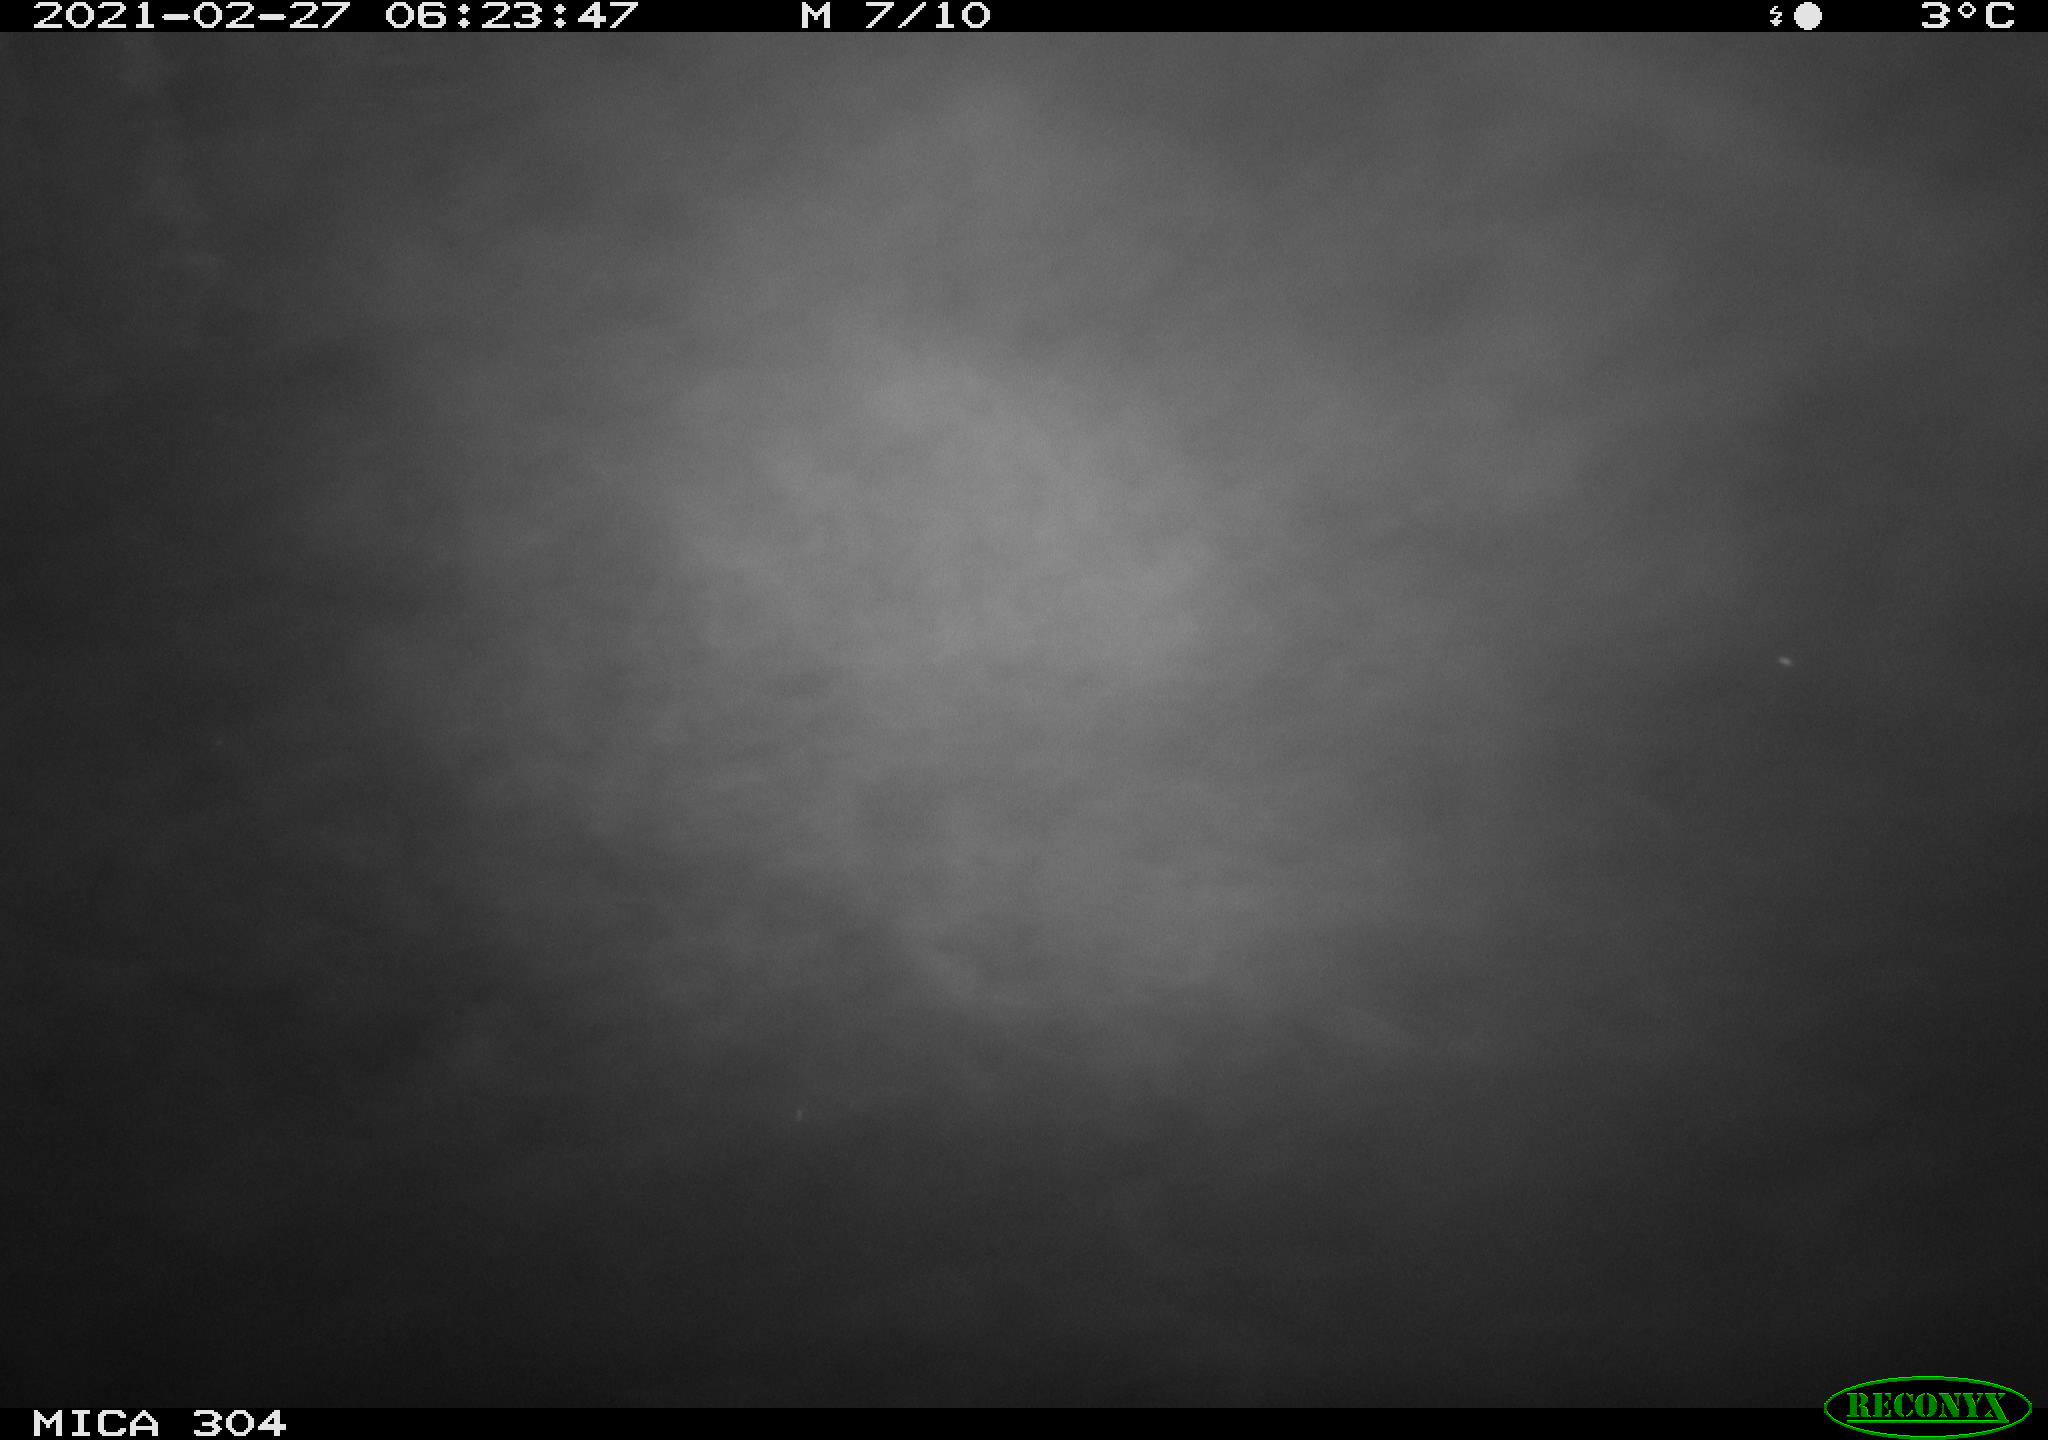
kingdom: Animalia
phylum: Chordata
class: Aves
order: Anseriformes
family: Anatidae
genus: Anas
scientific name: Anas platyrhynchos
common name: Mallard
